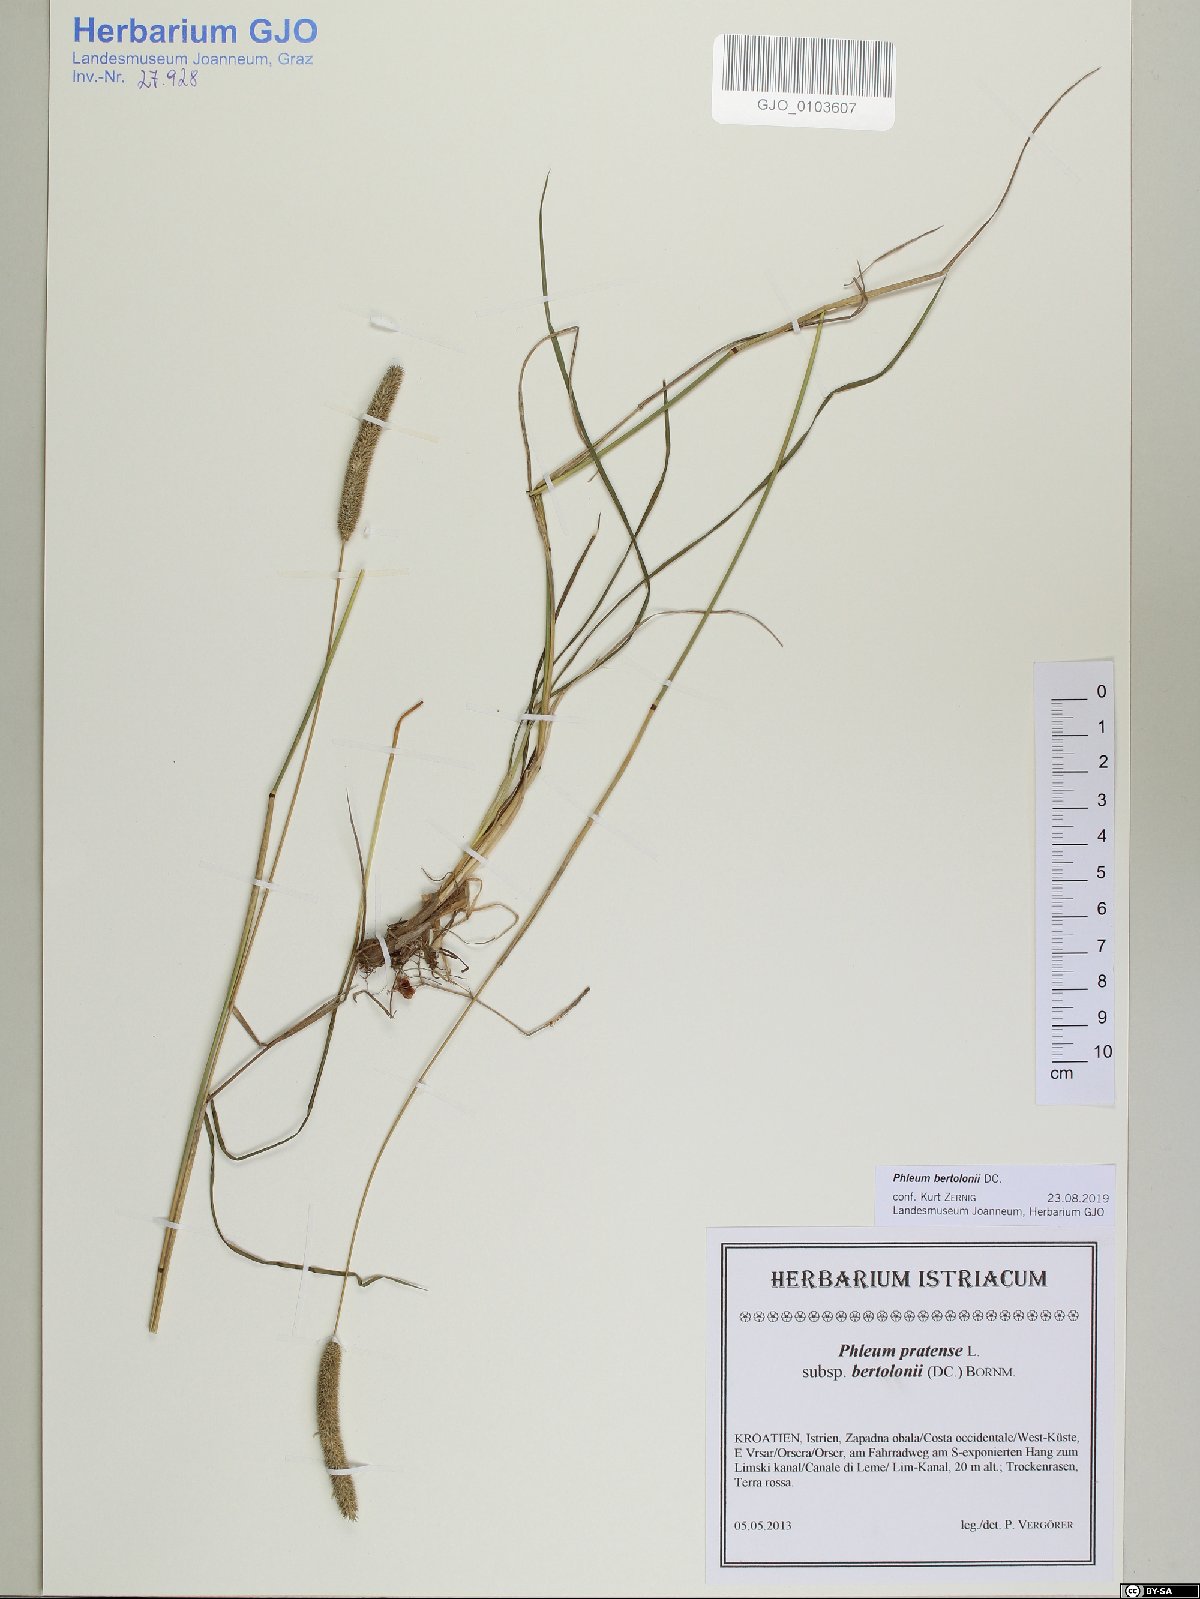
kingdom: Plantae
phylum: Tracheophyta
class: Liliopsida
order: Poales
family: Poaceae
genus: Phleum
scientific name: Phleum bertolonii
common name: Smaller cat's-tail
